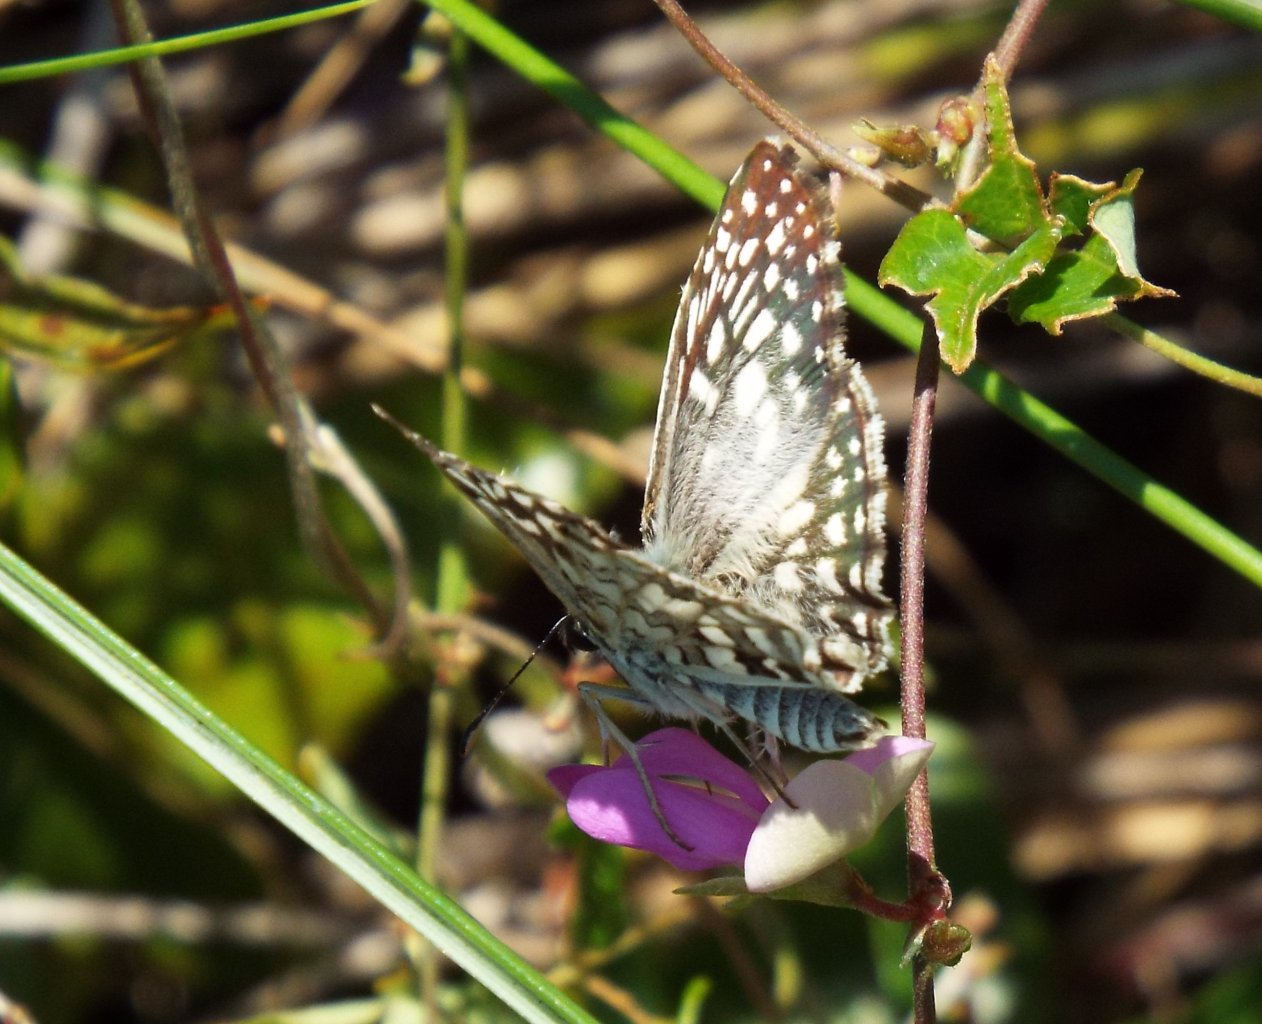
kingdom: Animalia
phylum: Arthropoda
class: Insecta
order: Lepidoptera
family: Hesperiidae
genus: Pyrgus
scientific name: Pyrgus oileus
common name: Tropical Checkered-Skipper
